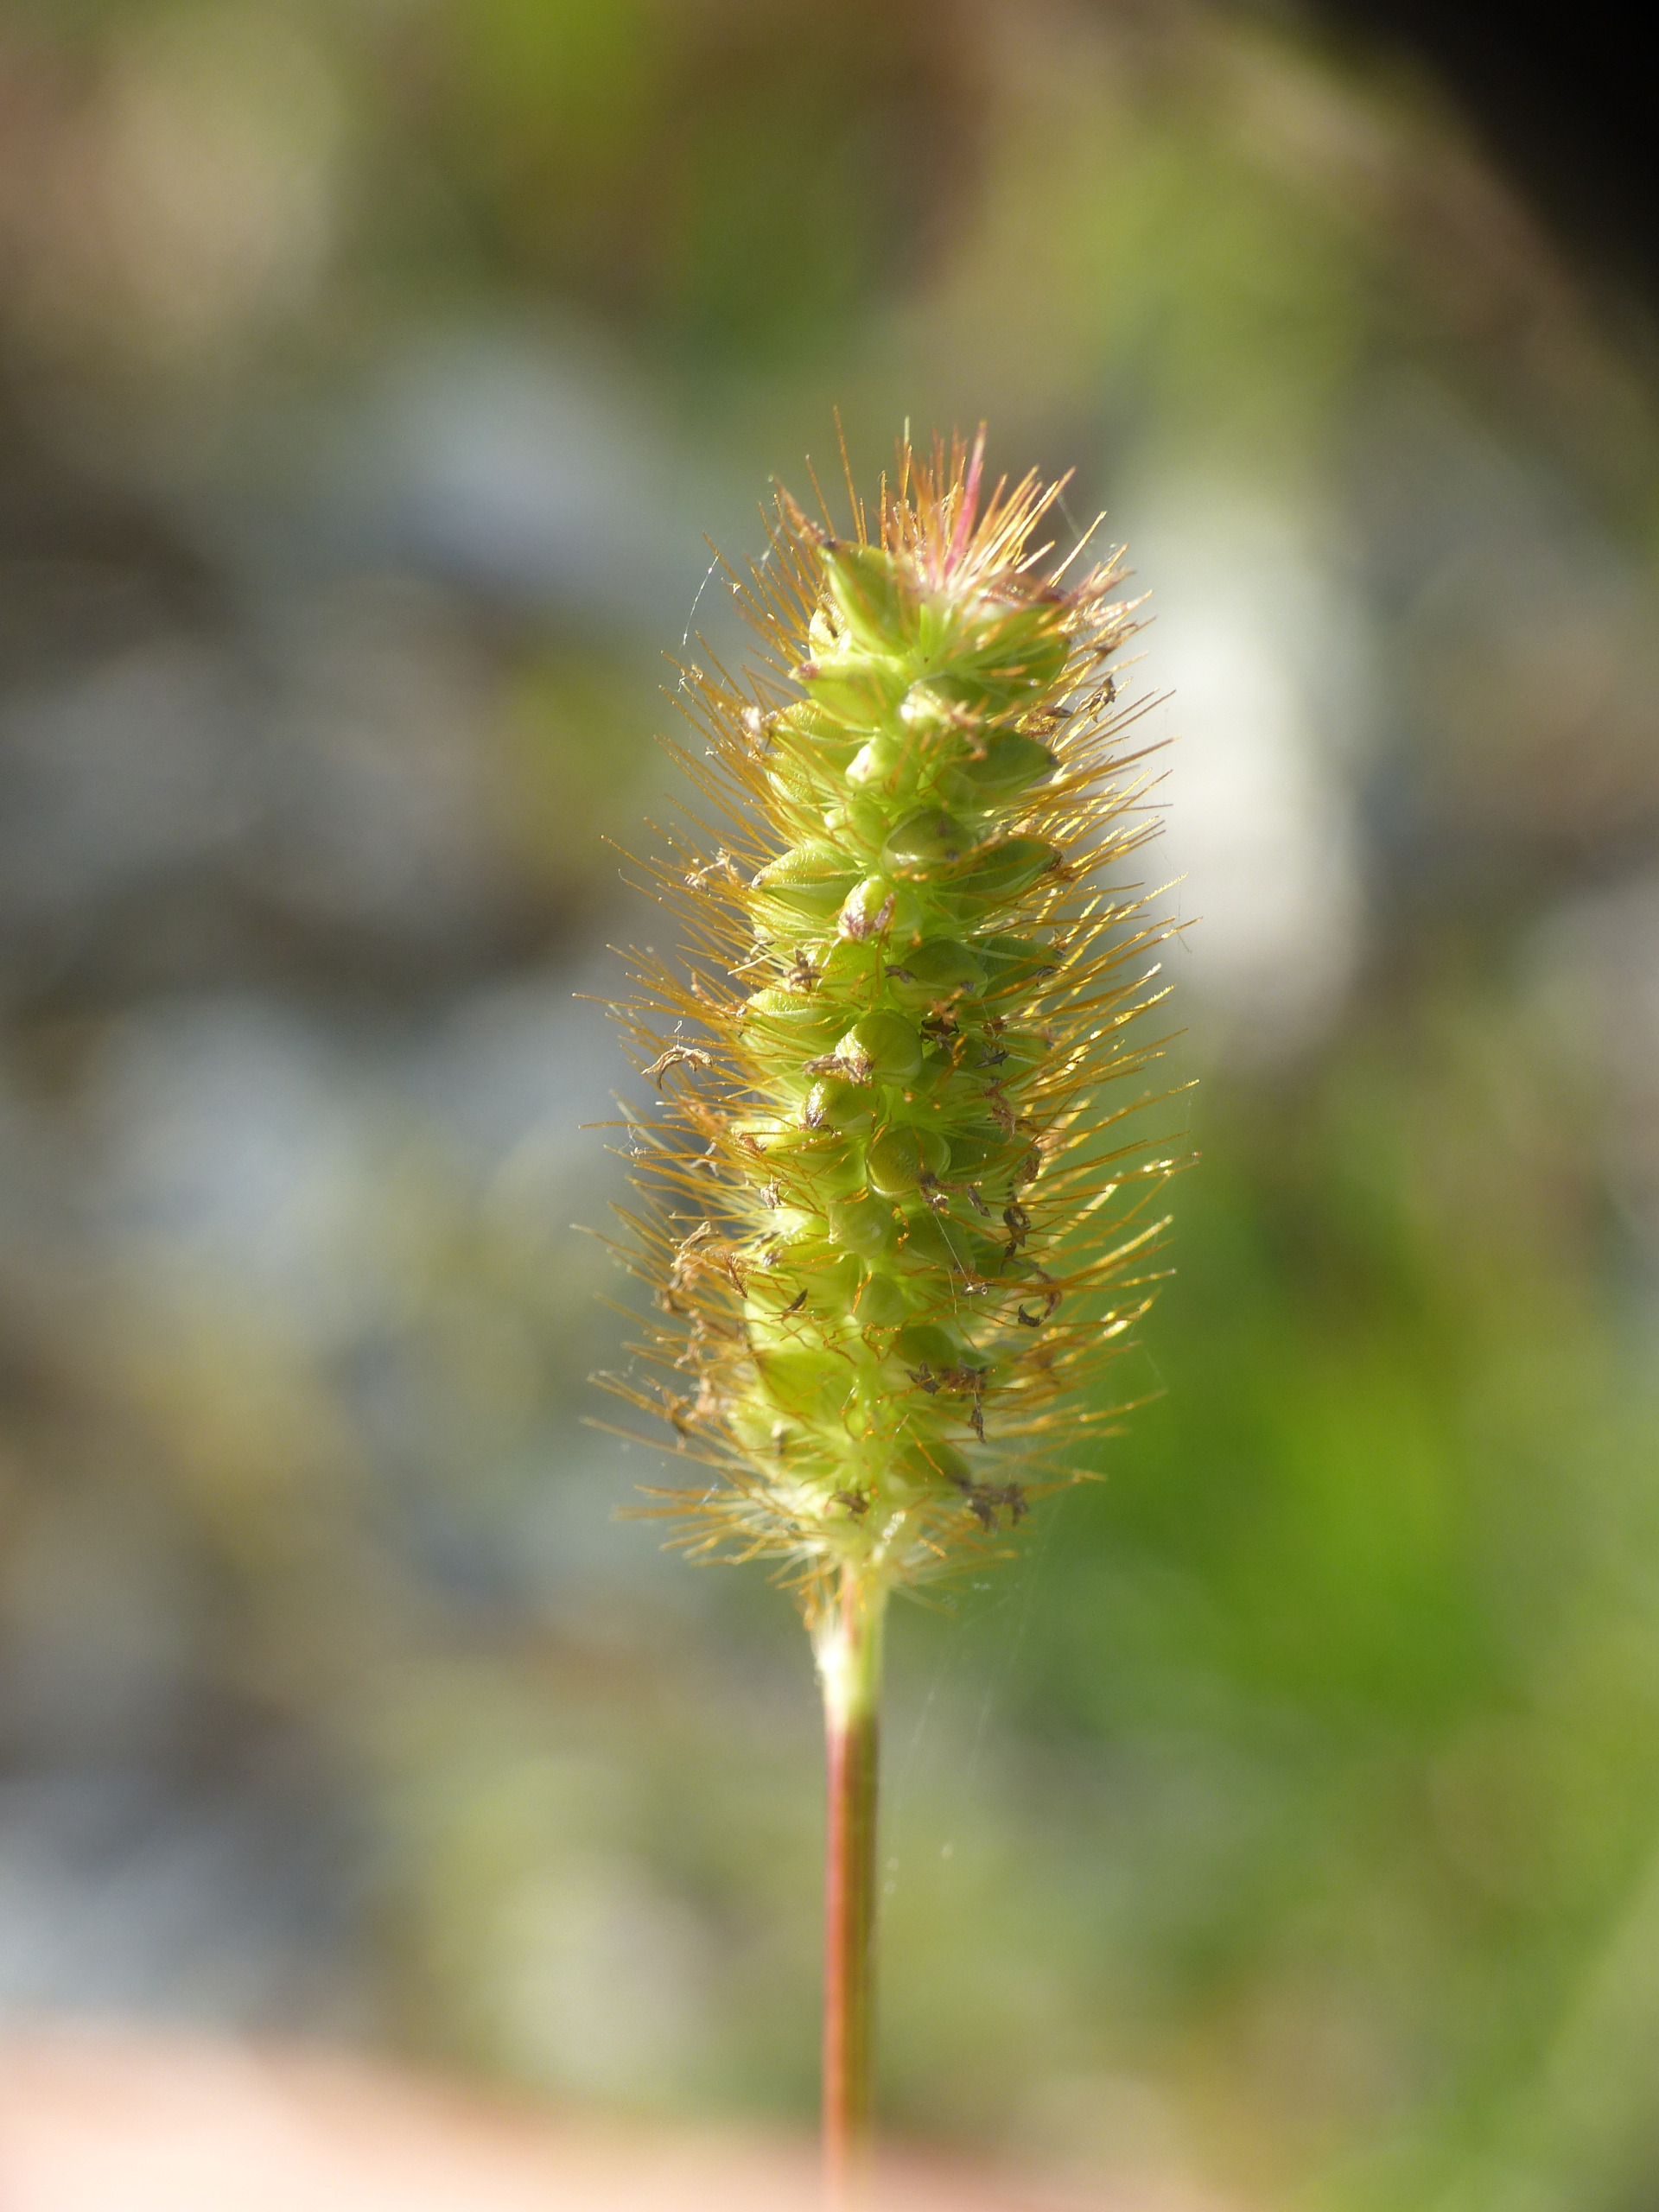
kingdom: Plantae
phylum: Tracheophyta
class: Liliopsida
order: Poales
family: Poaceae
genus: Setaria
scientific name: Setaria pumila
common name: Blågrøn skærmaks
